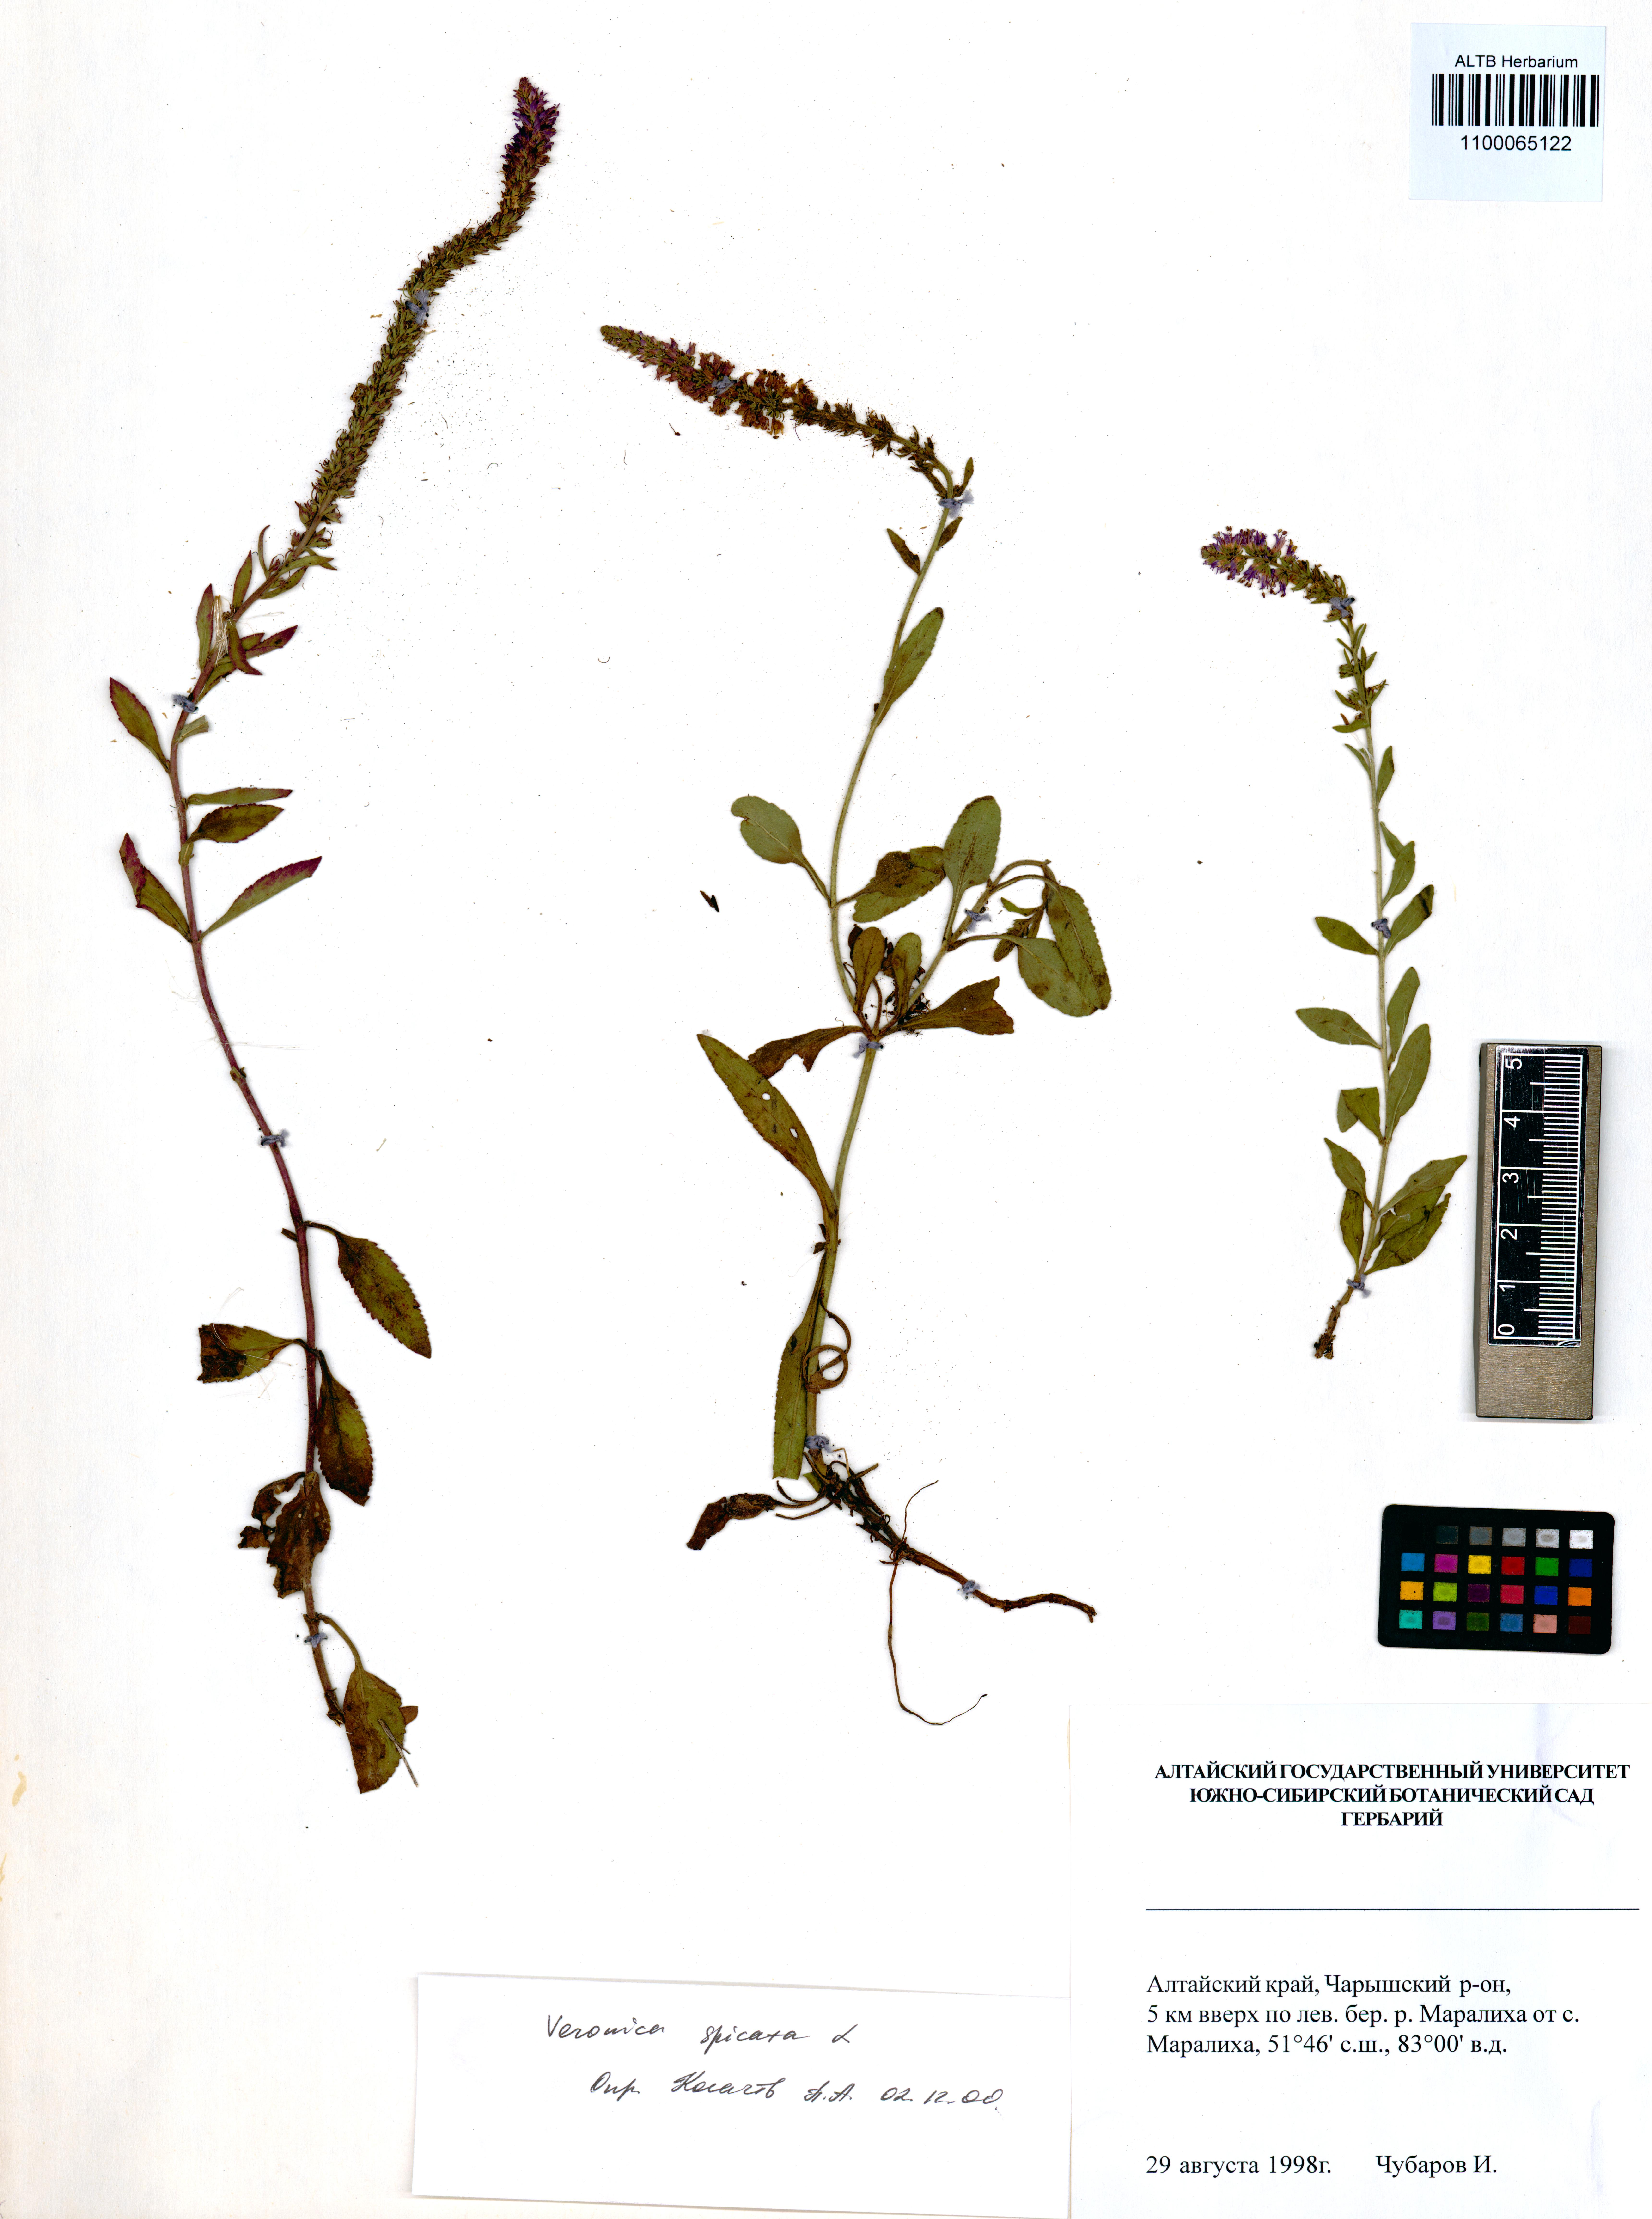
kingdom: Plantae
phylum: Tracheophyta
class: Magnoliopsida
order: Lamiales
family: Plantaginaceae
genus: Veronica
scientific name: Veronica spicata
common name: Spiked speedwell
